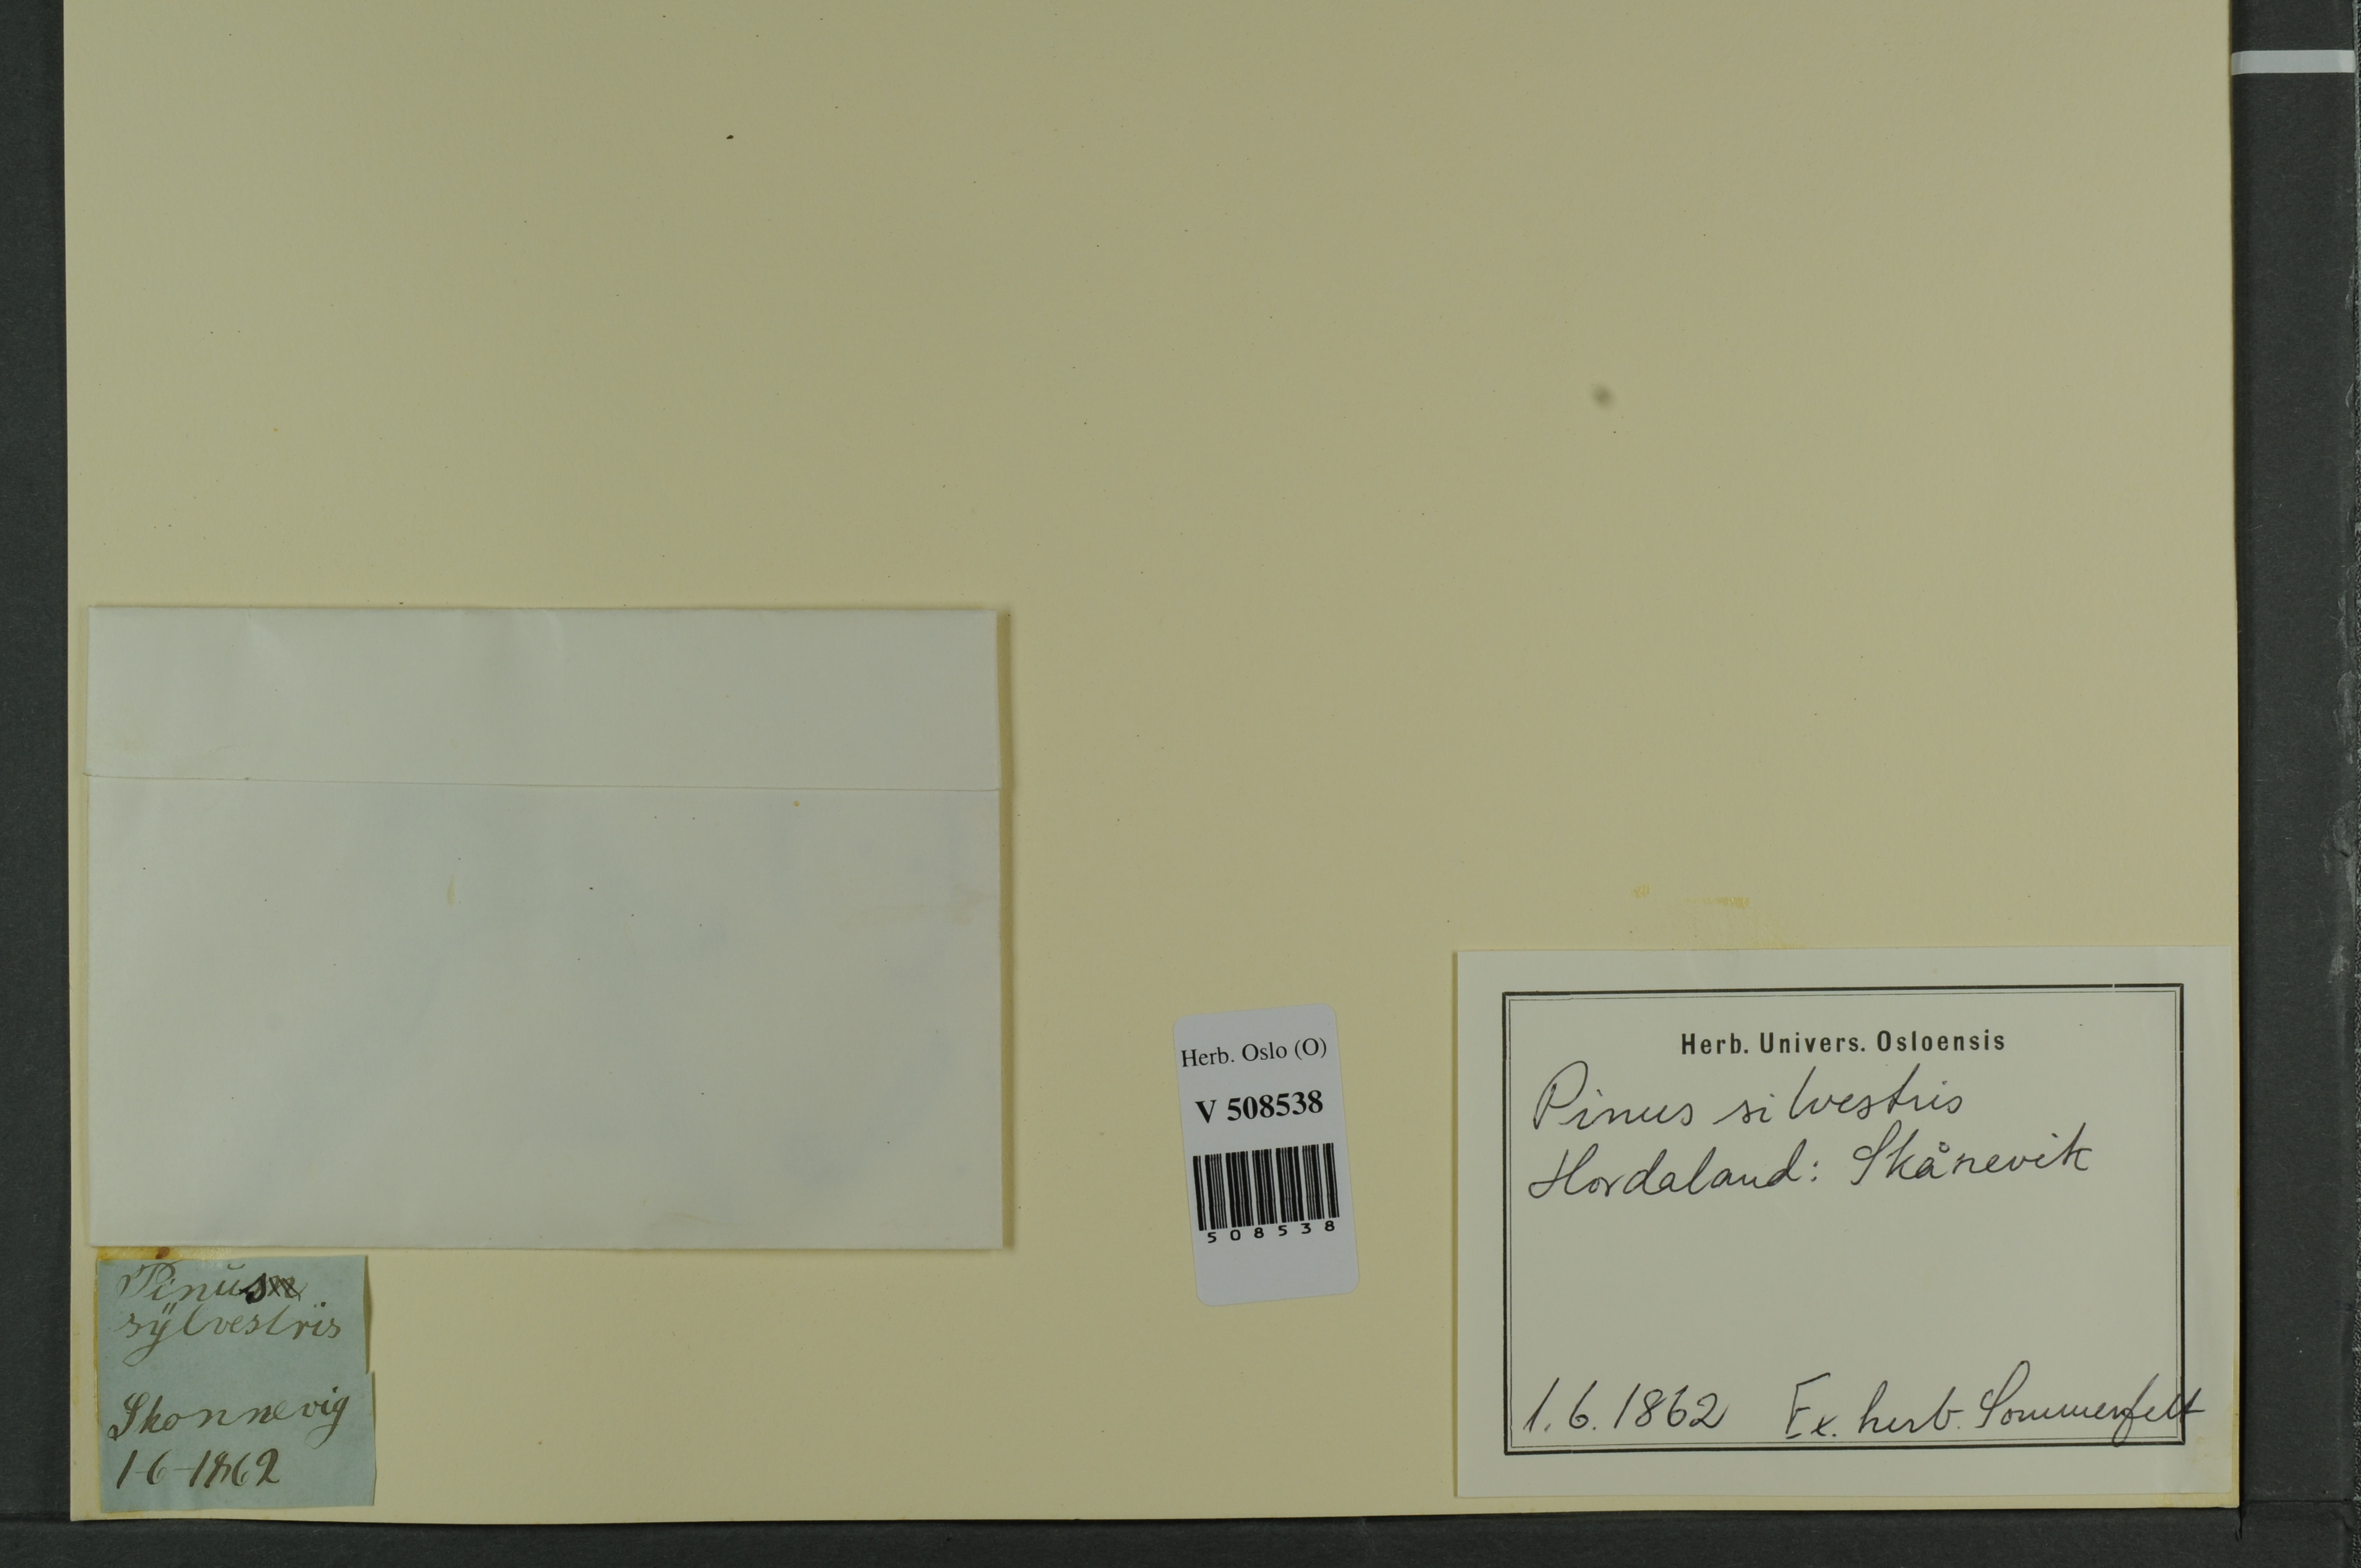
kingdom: Plantae
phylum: Tracheophyta
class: Pinopsida
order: Pinales
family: Pinaceae
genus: Pinus
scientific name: Pinus sylvestris
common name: Scots pine
